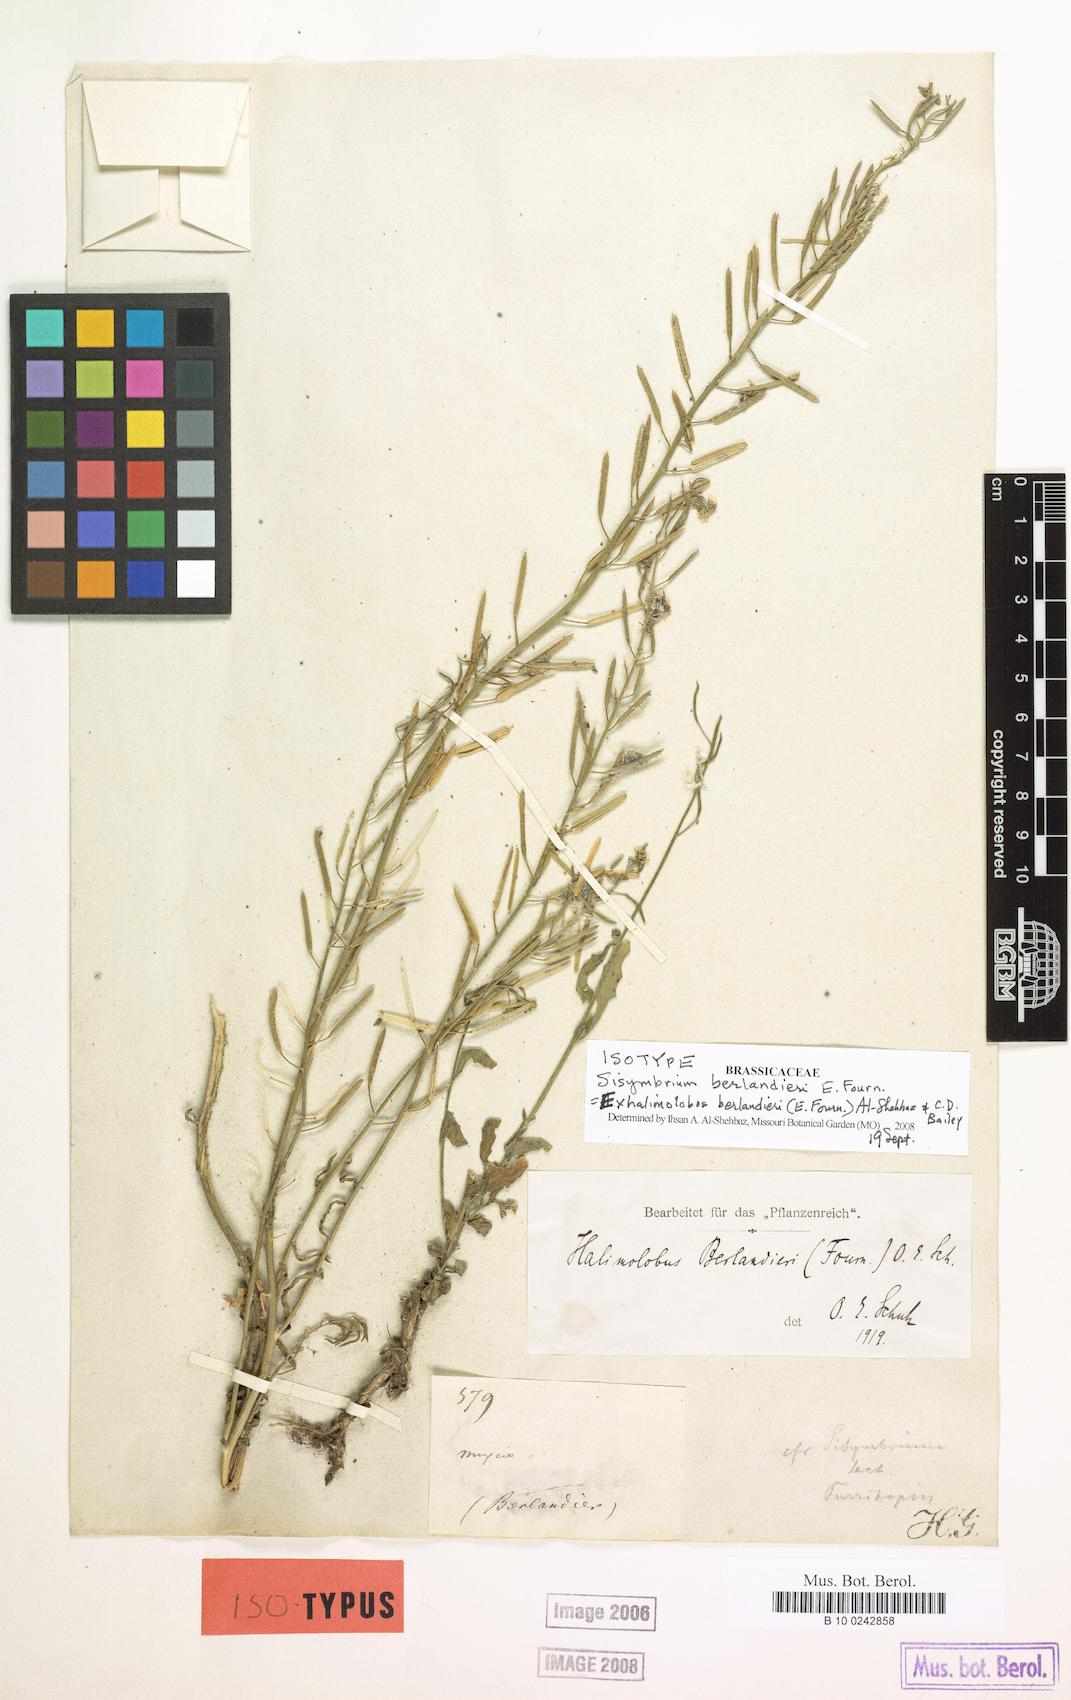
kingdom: Plantae
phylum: Tracheophyta
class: Magnoliopsida
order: Brassicales
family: Brassicaceae
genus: Exhalimolobos
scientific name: Exhalimolobos berlandieri
